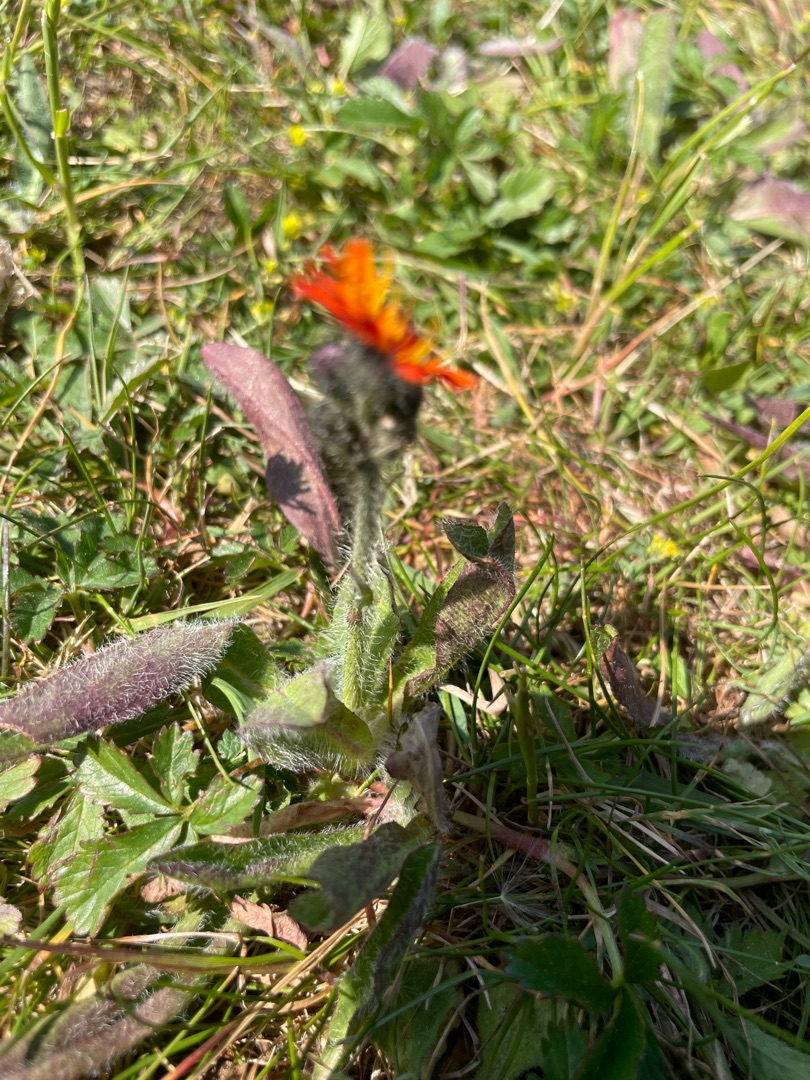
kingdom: Plantae
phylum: Tracheophyta
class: Magnoliopsida
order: Asterales
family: Asteraceae
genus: Pilosella
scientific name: Pilosella aurantiaca
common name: Pomerans-høgeurt
